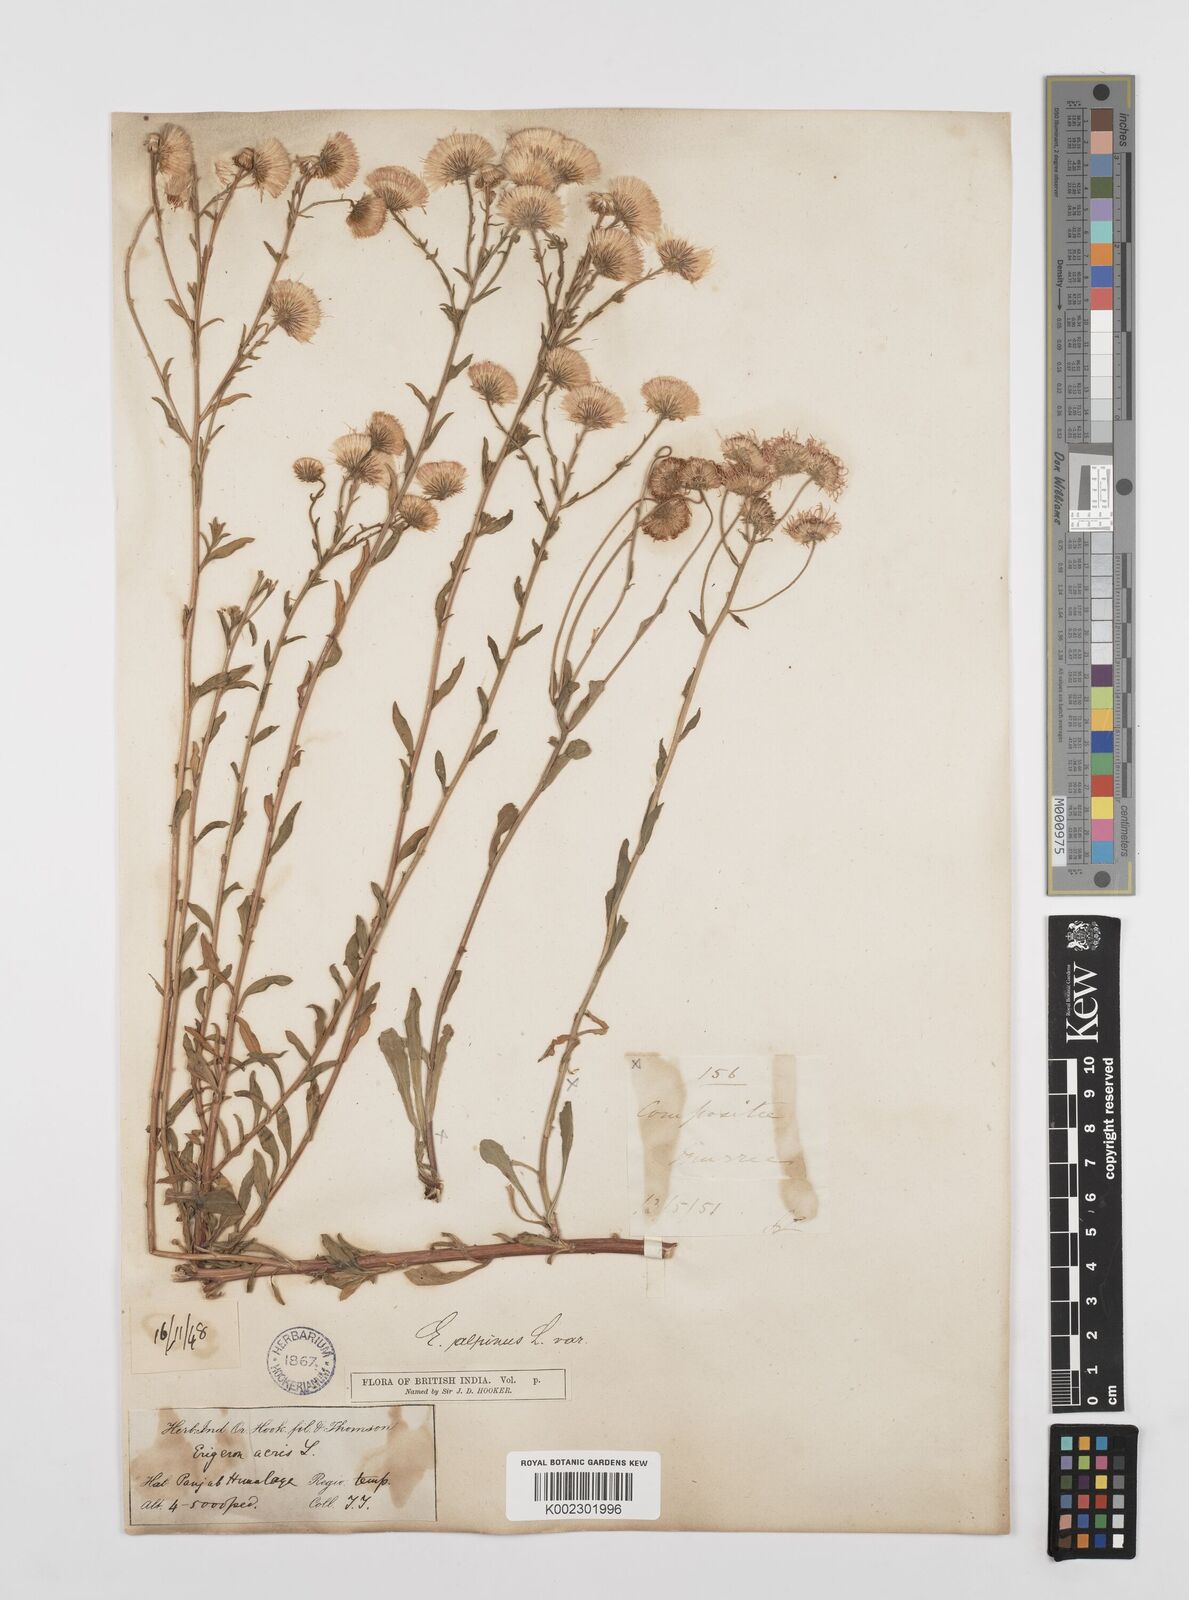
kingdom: Plantae
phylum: Tracheophyta
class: Magnoliopsida
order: Asterales
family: Asteraceae
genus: Erigeron
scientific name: Erigeron alpinus
